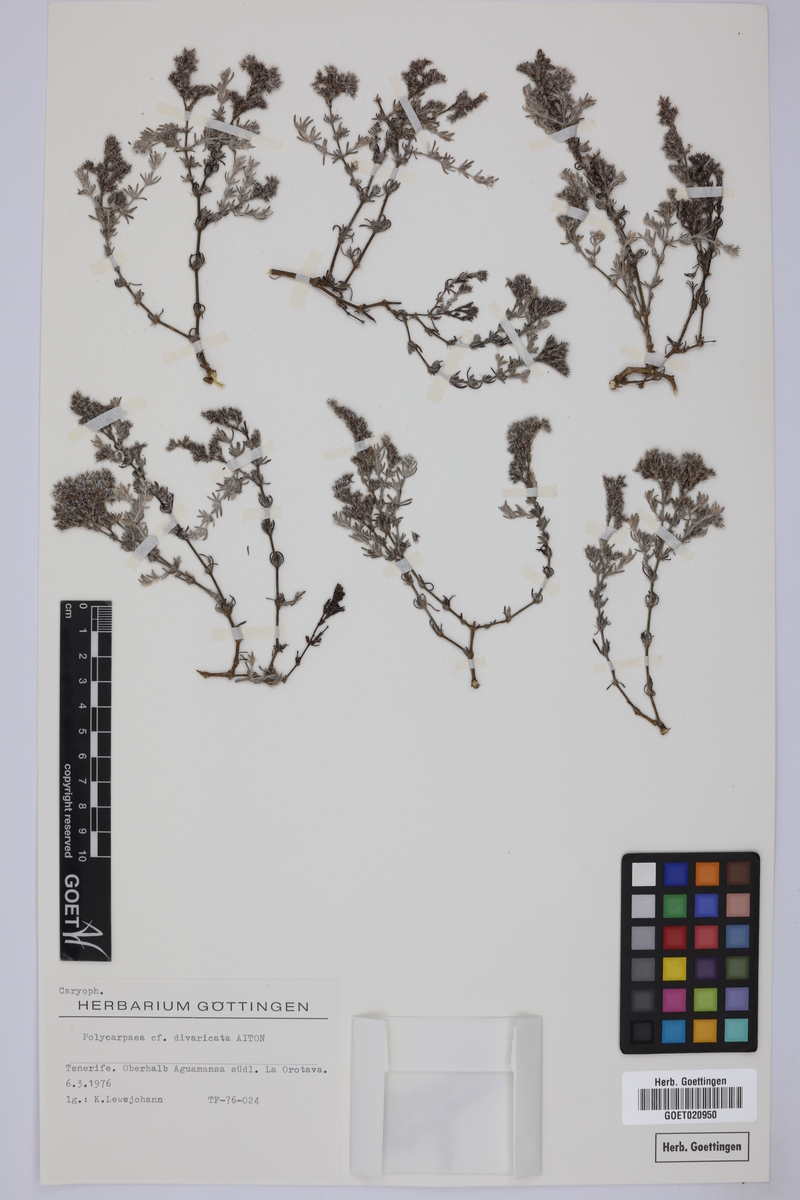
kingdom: Plantae
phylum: Tracheophyta
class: Magnoliopsida
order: Caryophyllales
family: Caryophyllaceae
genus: Polycarpaea
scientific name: Polycarpaea divaricata
